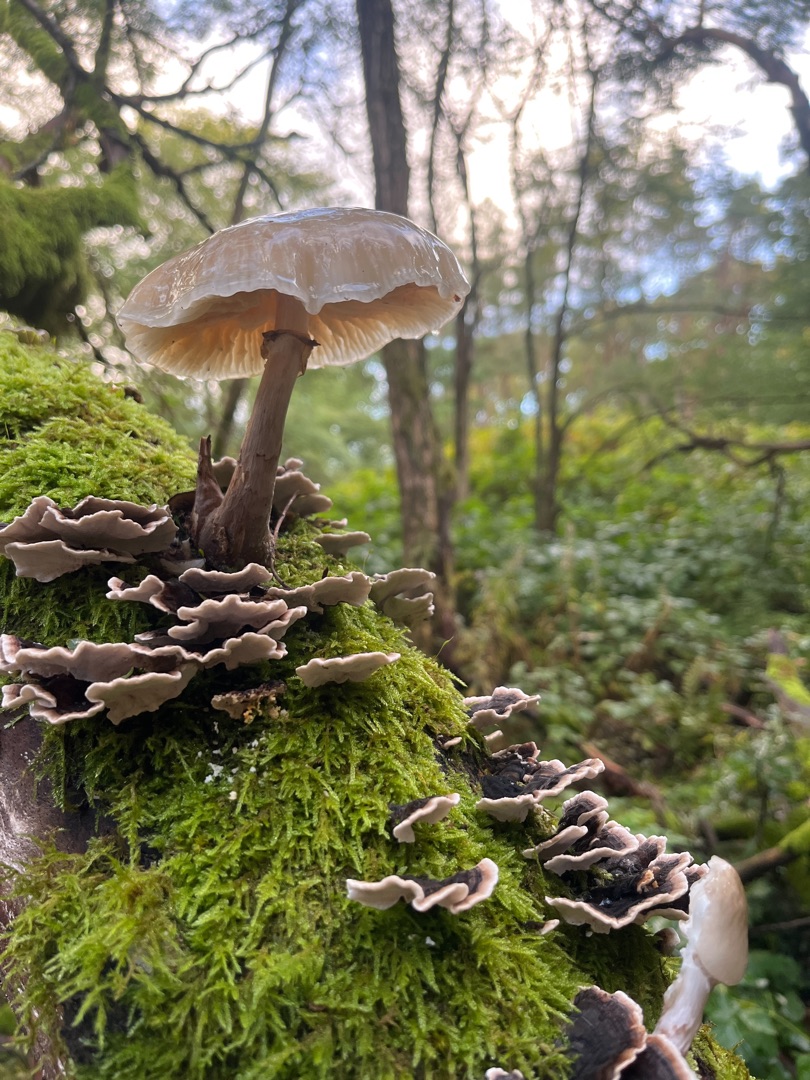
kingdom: Fungi
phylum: Basidiomycota
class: Agaricomycetes
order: Agaricales
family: Physalacriaceae
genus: Mucidula
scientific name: Mucidula mucida
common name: Porcelænshat
